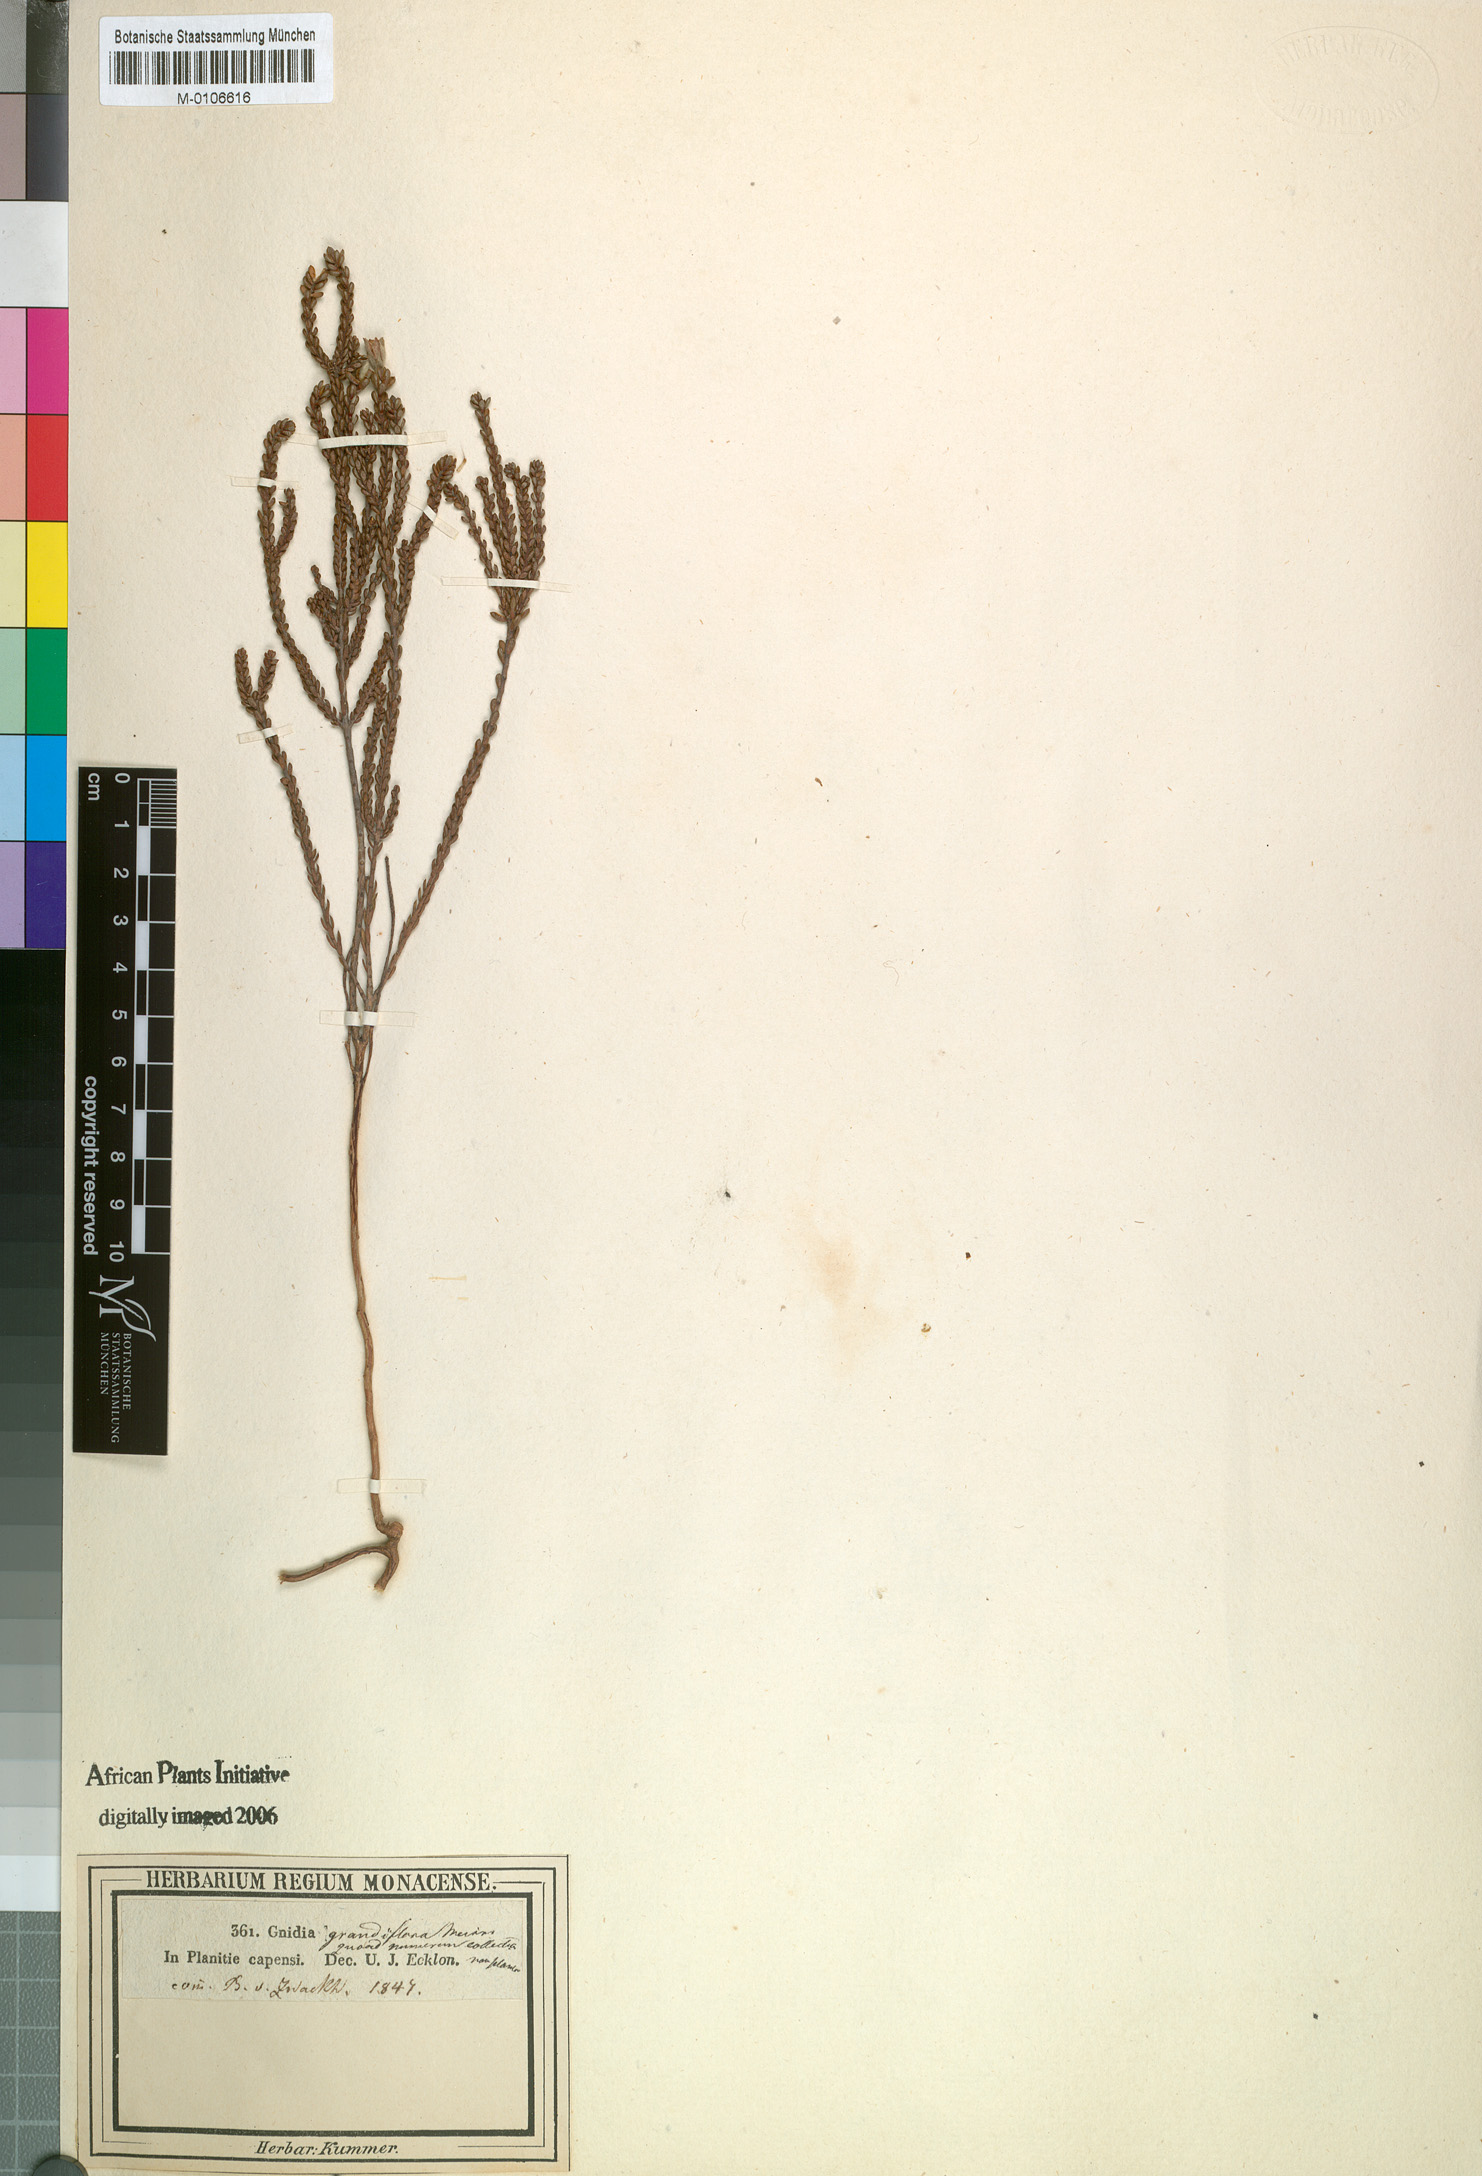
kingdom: Plantae
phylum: Tracheophyta
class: Magnoliopsida
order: Malvales
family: Thymelaeaceae
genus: Lachnaea
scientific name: Lachnaea grandiflora
